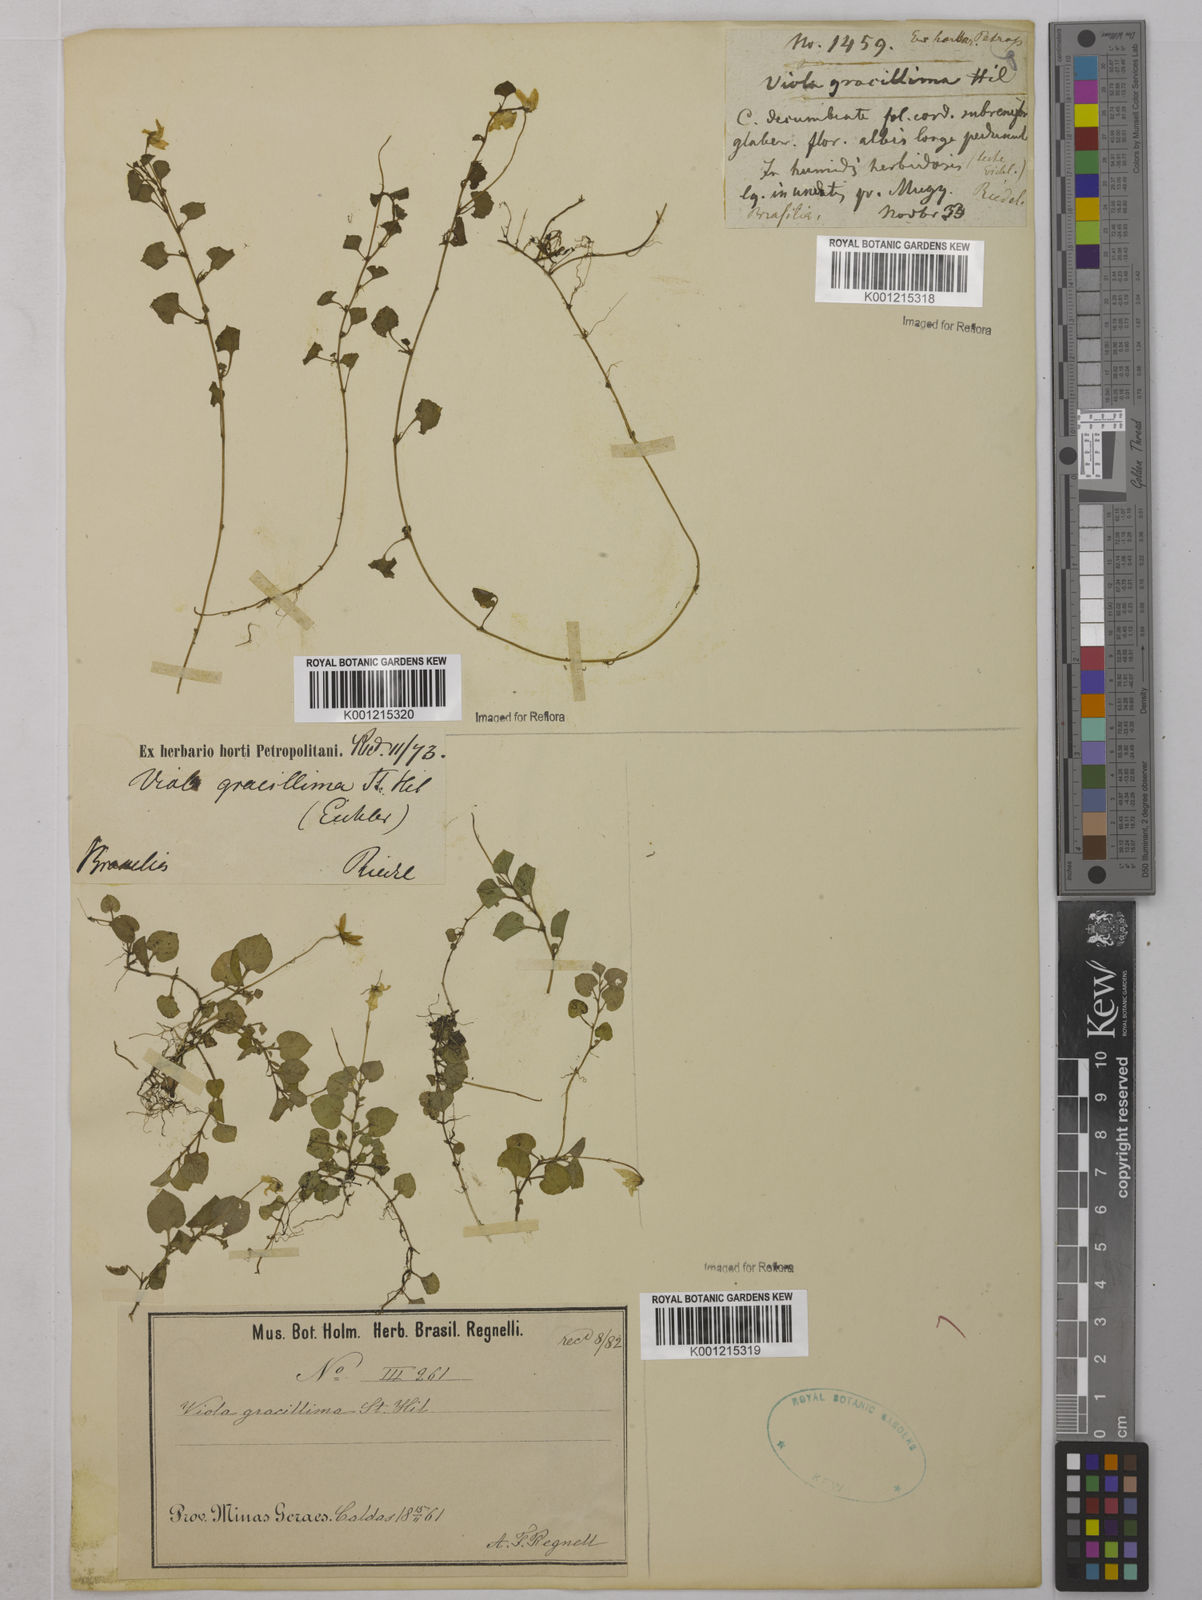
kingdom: Plantae
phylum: Tracheophyta
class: Magnoliopsida
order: Malpighiales
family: Violaceae
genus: Viola
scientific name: Viola gracillima
